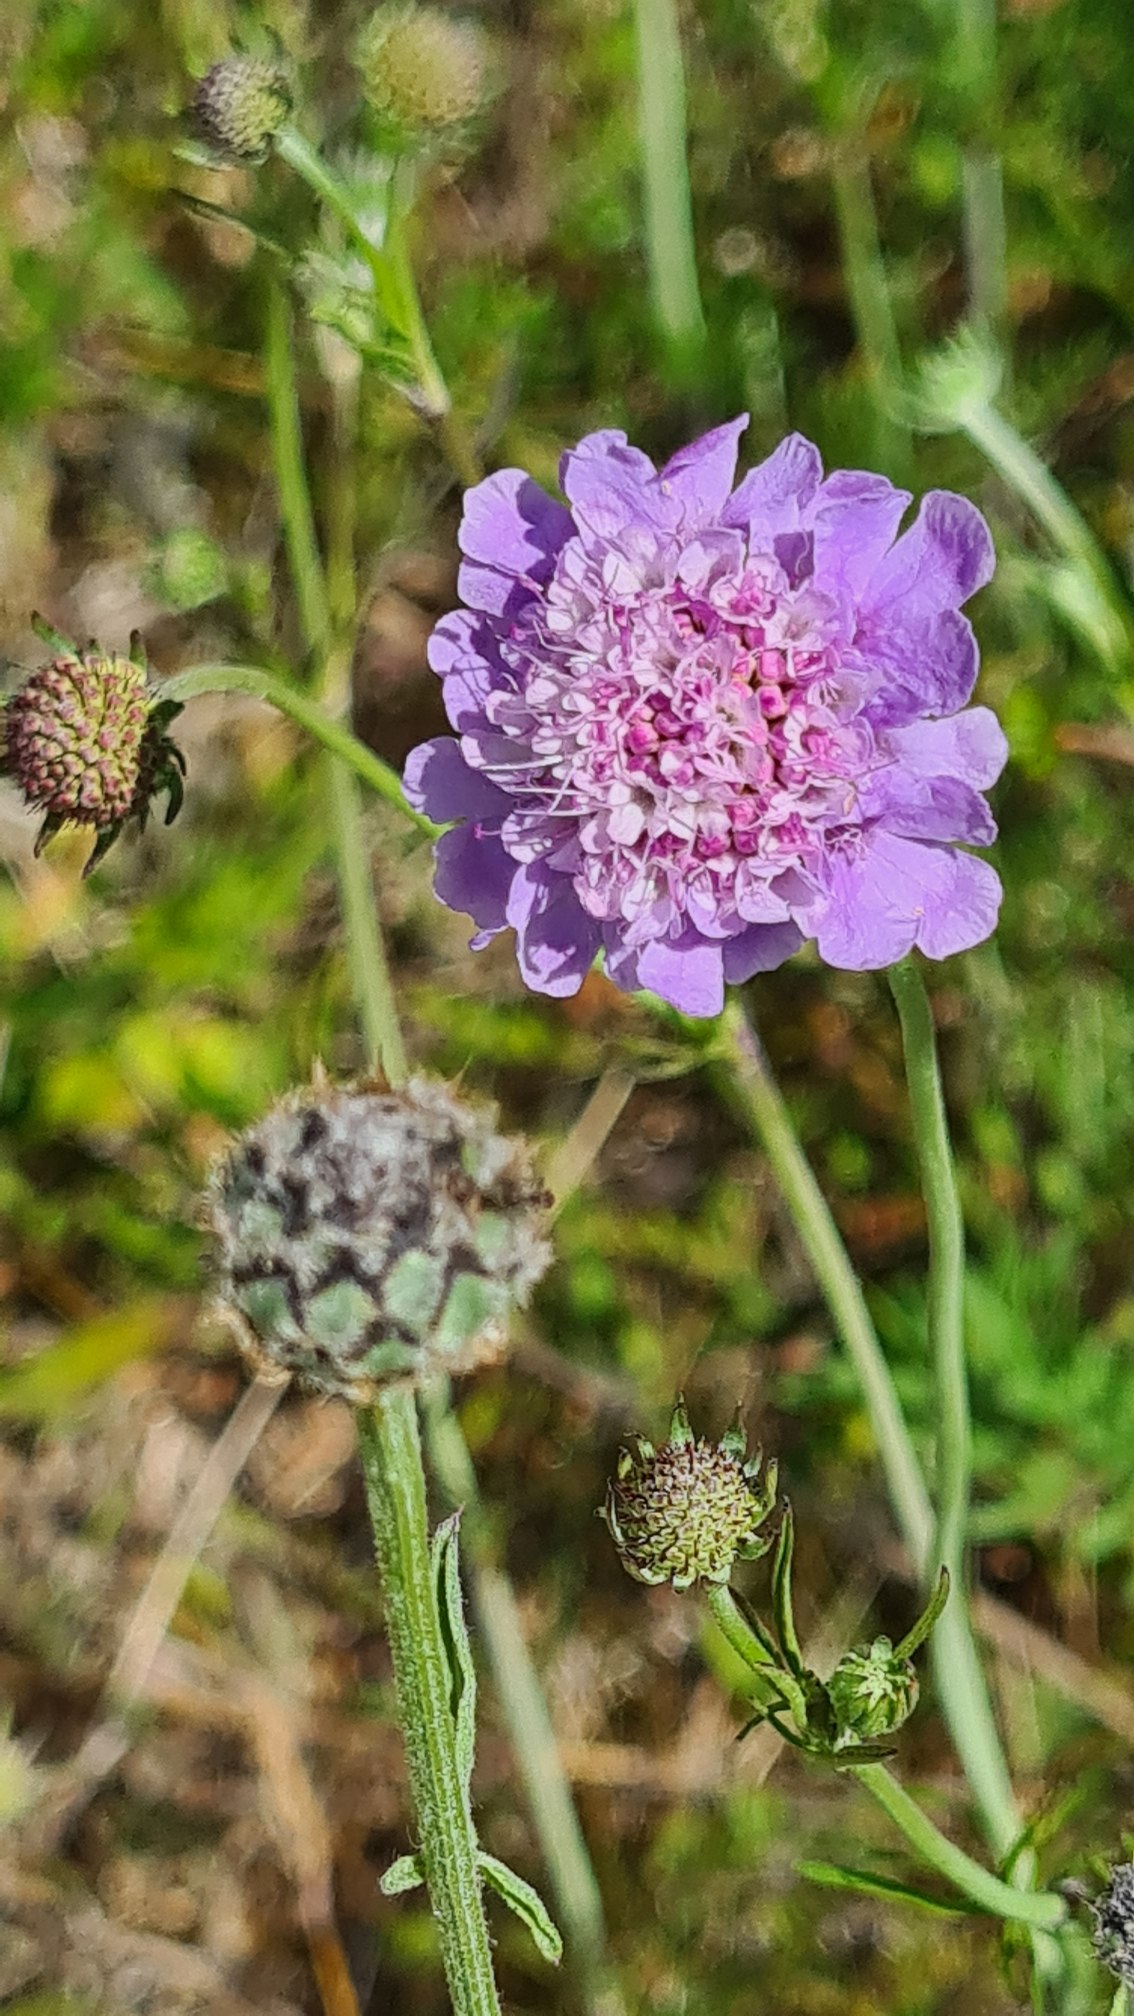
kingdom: Plantae
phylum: Tracheophyta
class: Magnoliopsida
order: Dipsacales
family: Caprifoliaceae
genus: Scabiosa
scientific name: Scabiosa columbaria
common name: Due-skabiose
